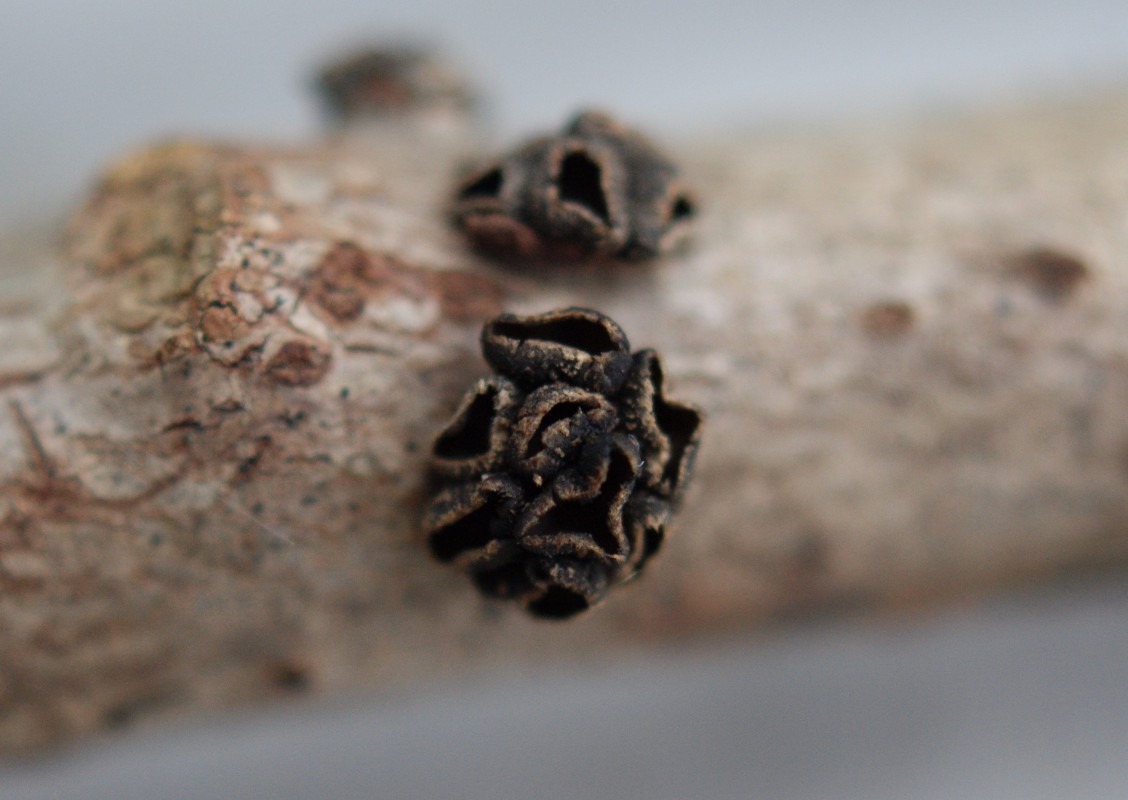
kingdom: Fungi
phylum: Ascomycota
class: Leotiomycetes
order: Helotiales
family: Sclerotiniaceae
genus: Sclerencoelia
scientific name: Sclerencoelia fascicularis
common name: poppel-læderskive
